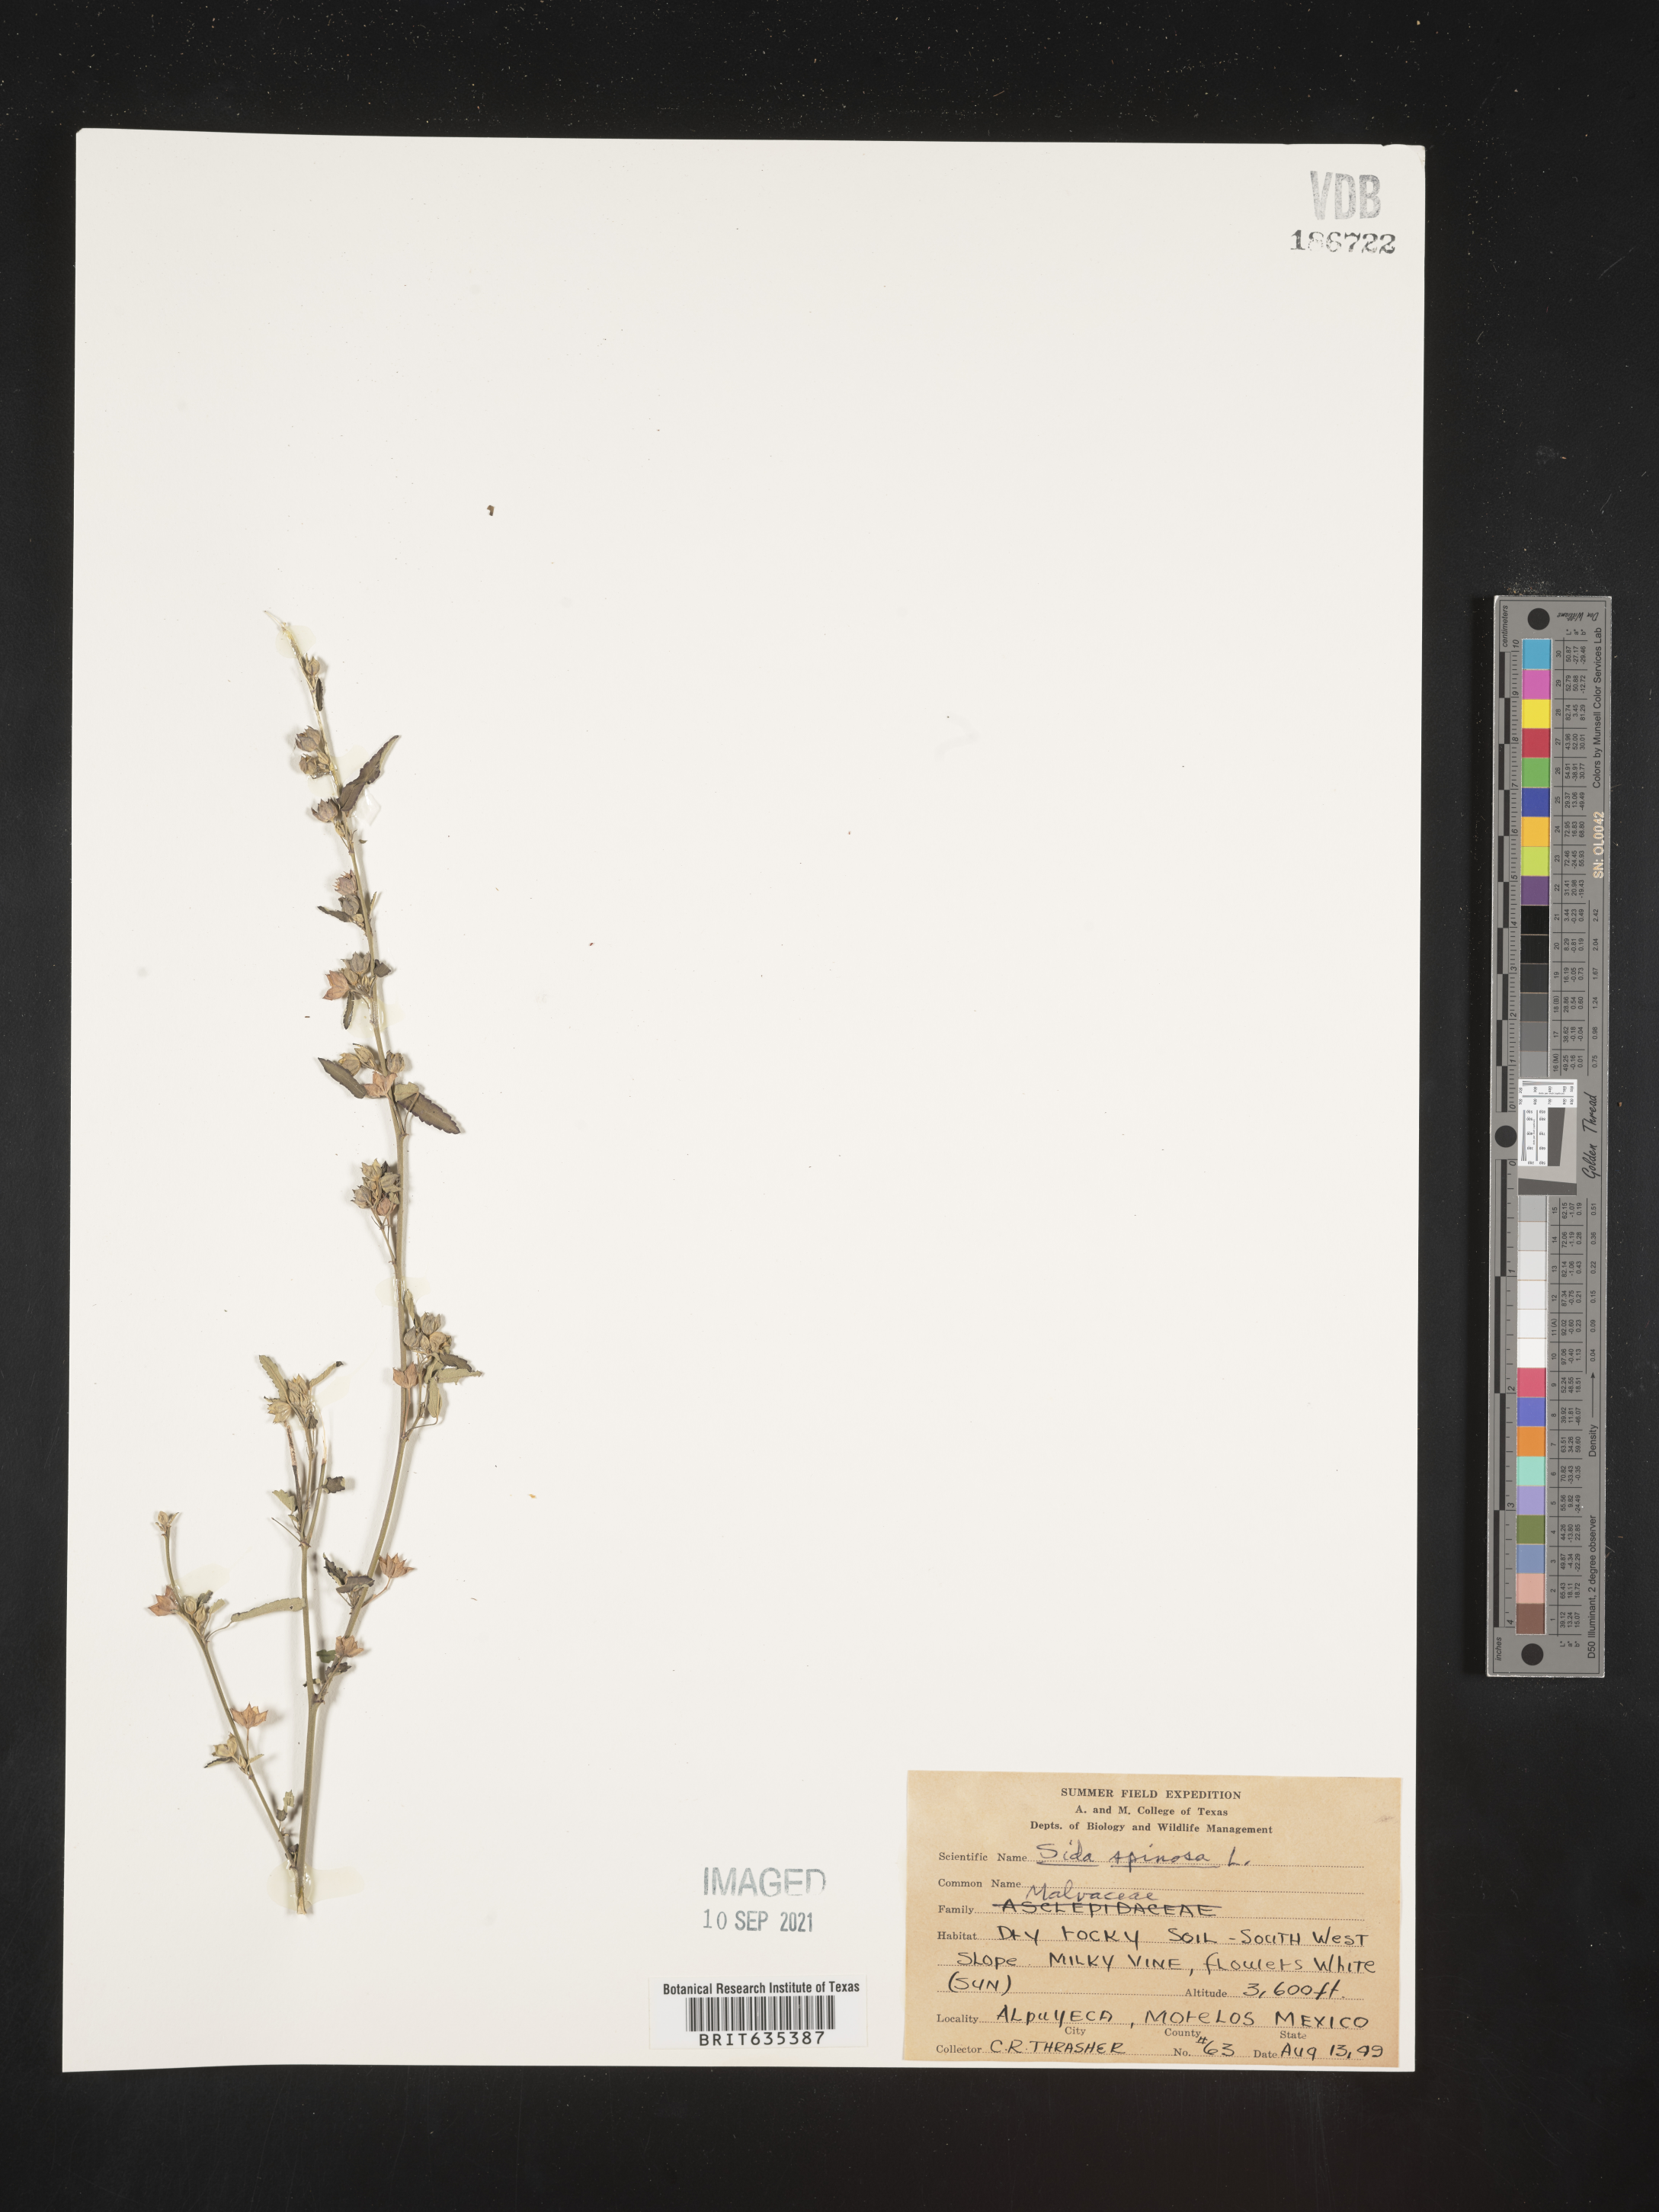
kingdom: Plantae
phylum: Tracheophyta
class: Magnoliopsida
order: Malvales
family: Malvaceae
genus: Sida
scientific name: Sida
